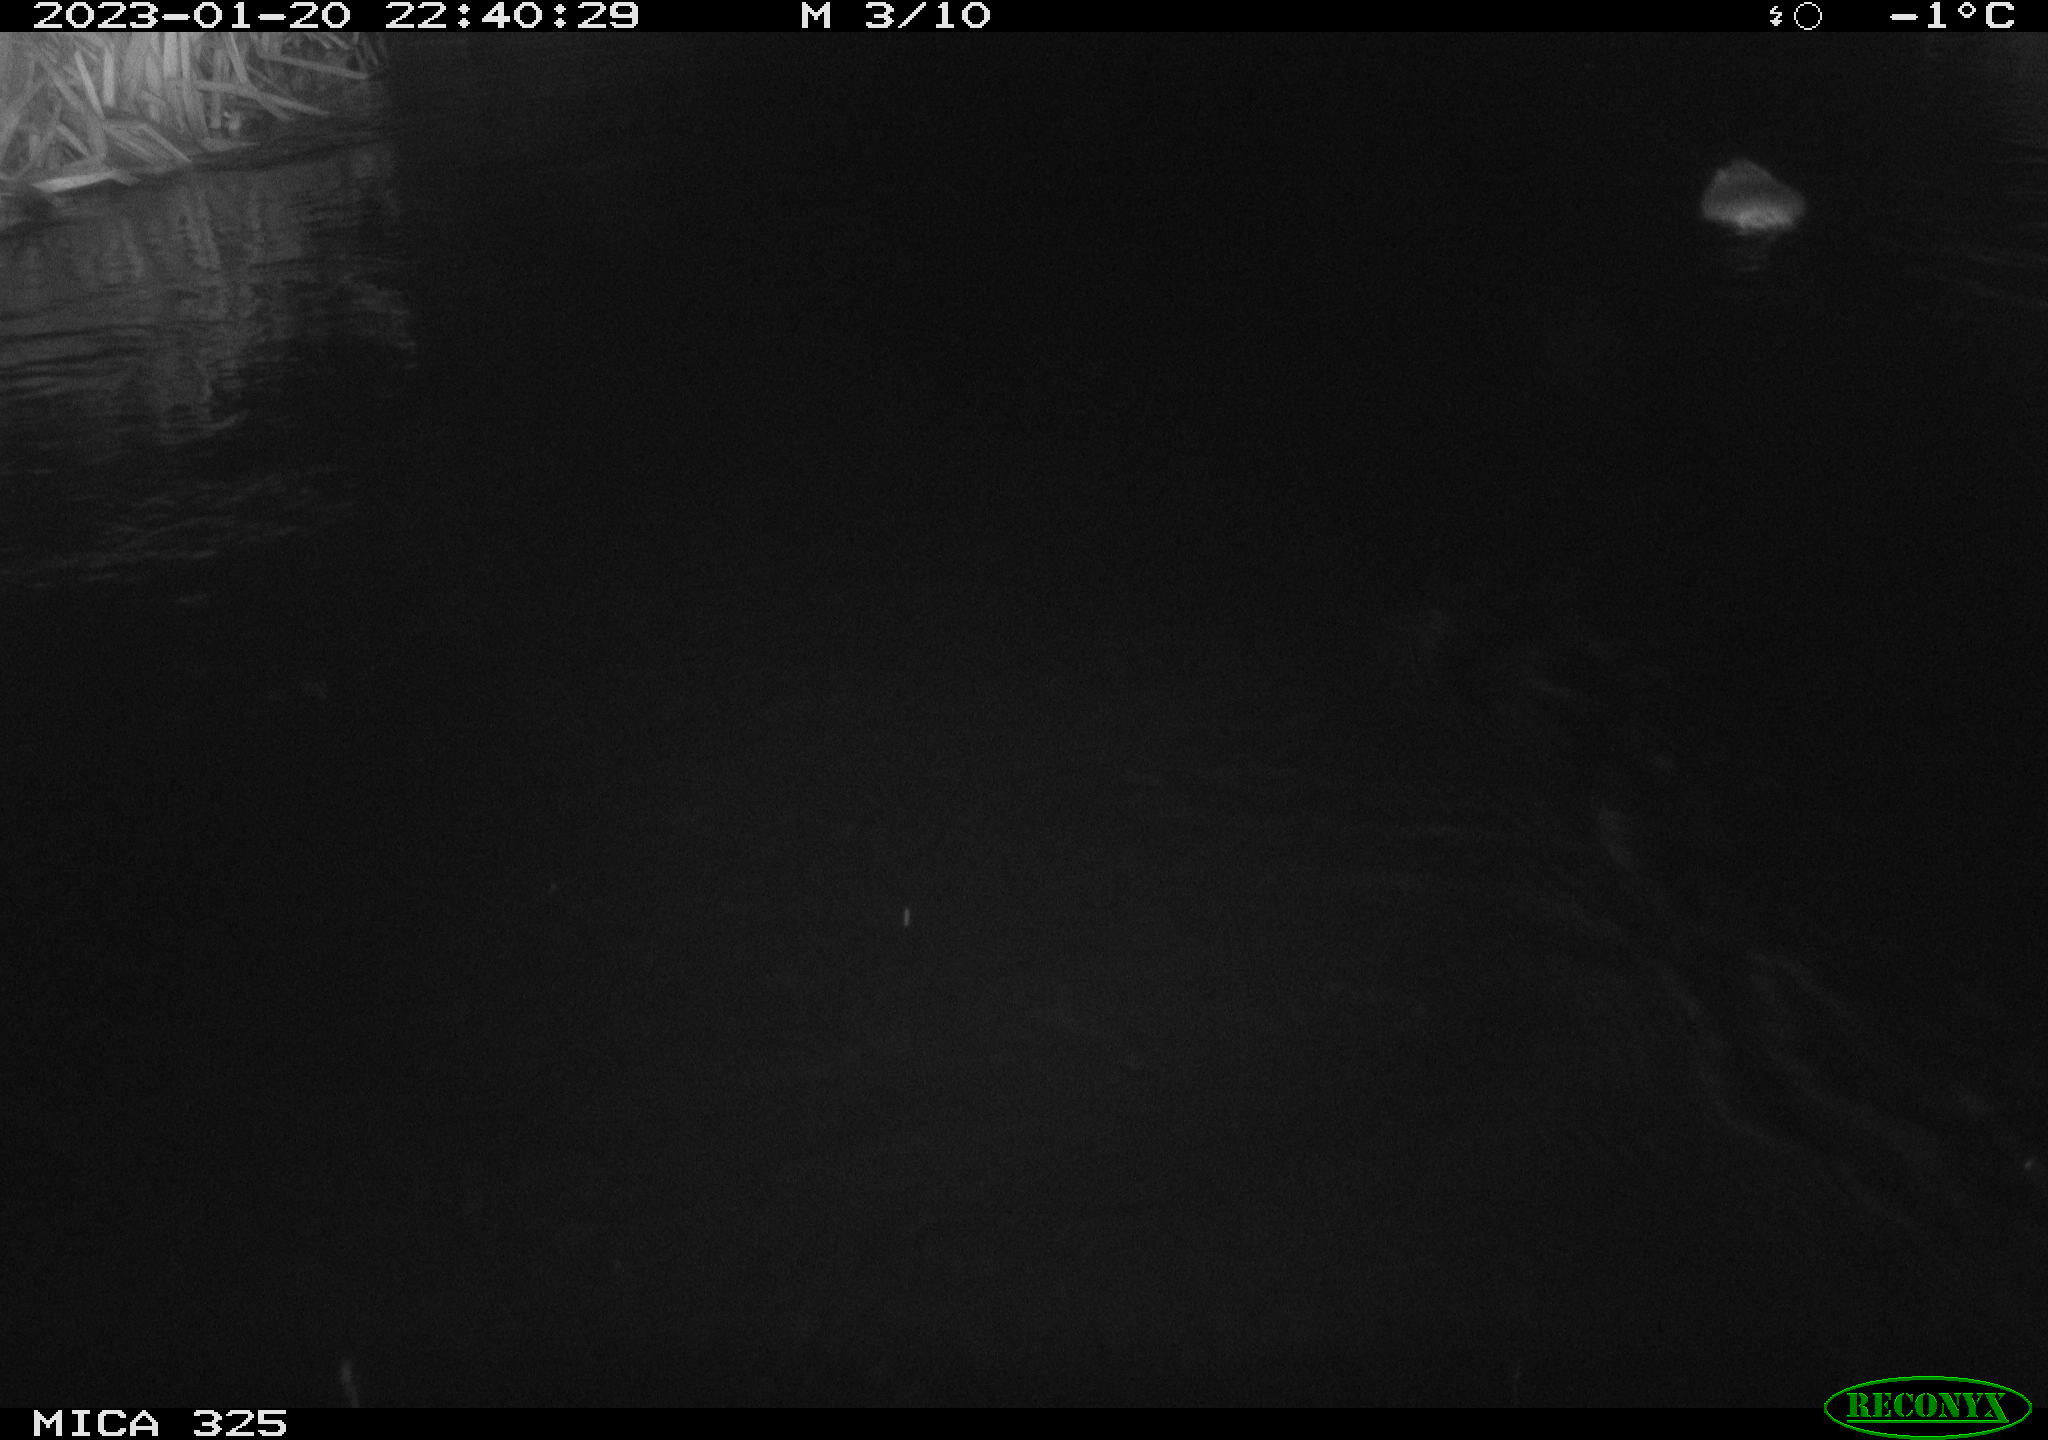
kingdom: Animalia
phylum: Chordata
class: Mammalia
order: Rodentia
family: Cricetidae
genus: Ondatra
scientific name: Ondatra zibethicus
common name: Muskrat
